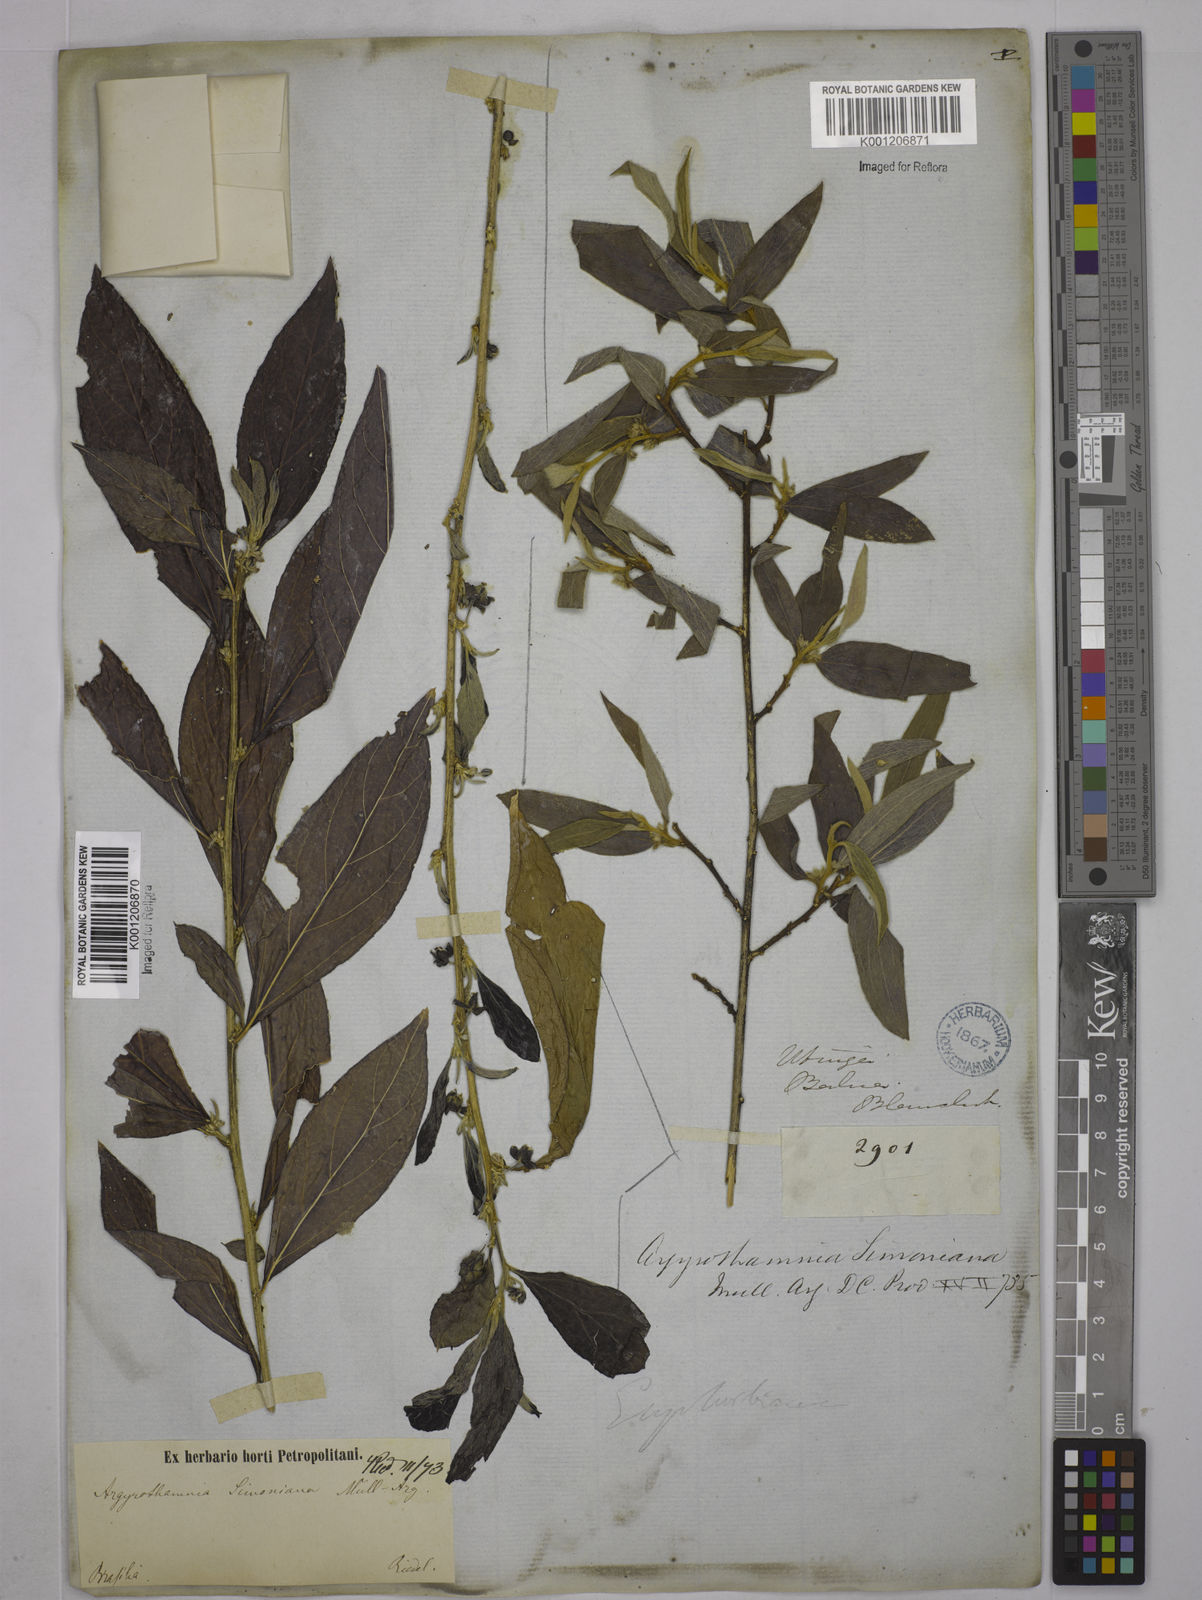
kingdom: Plantae
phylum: Tracheophyta
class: Magnoliopsida
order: Malpighiales
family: Euphorbiaceae
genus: Ditaxis
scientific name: Ditaxis simoniana
